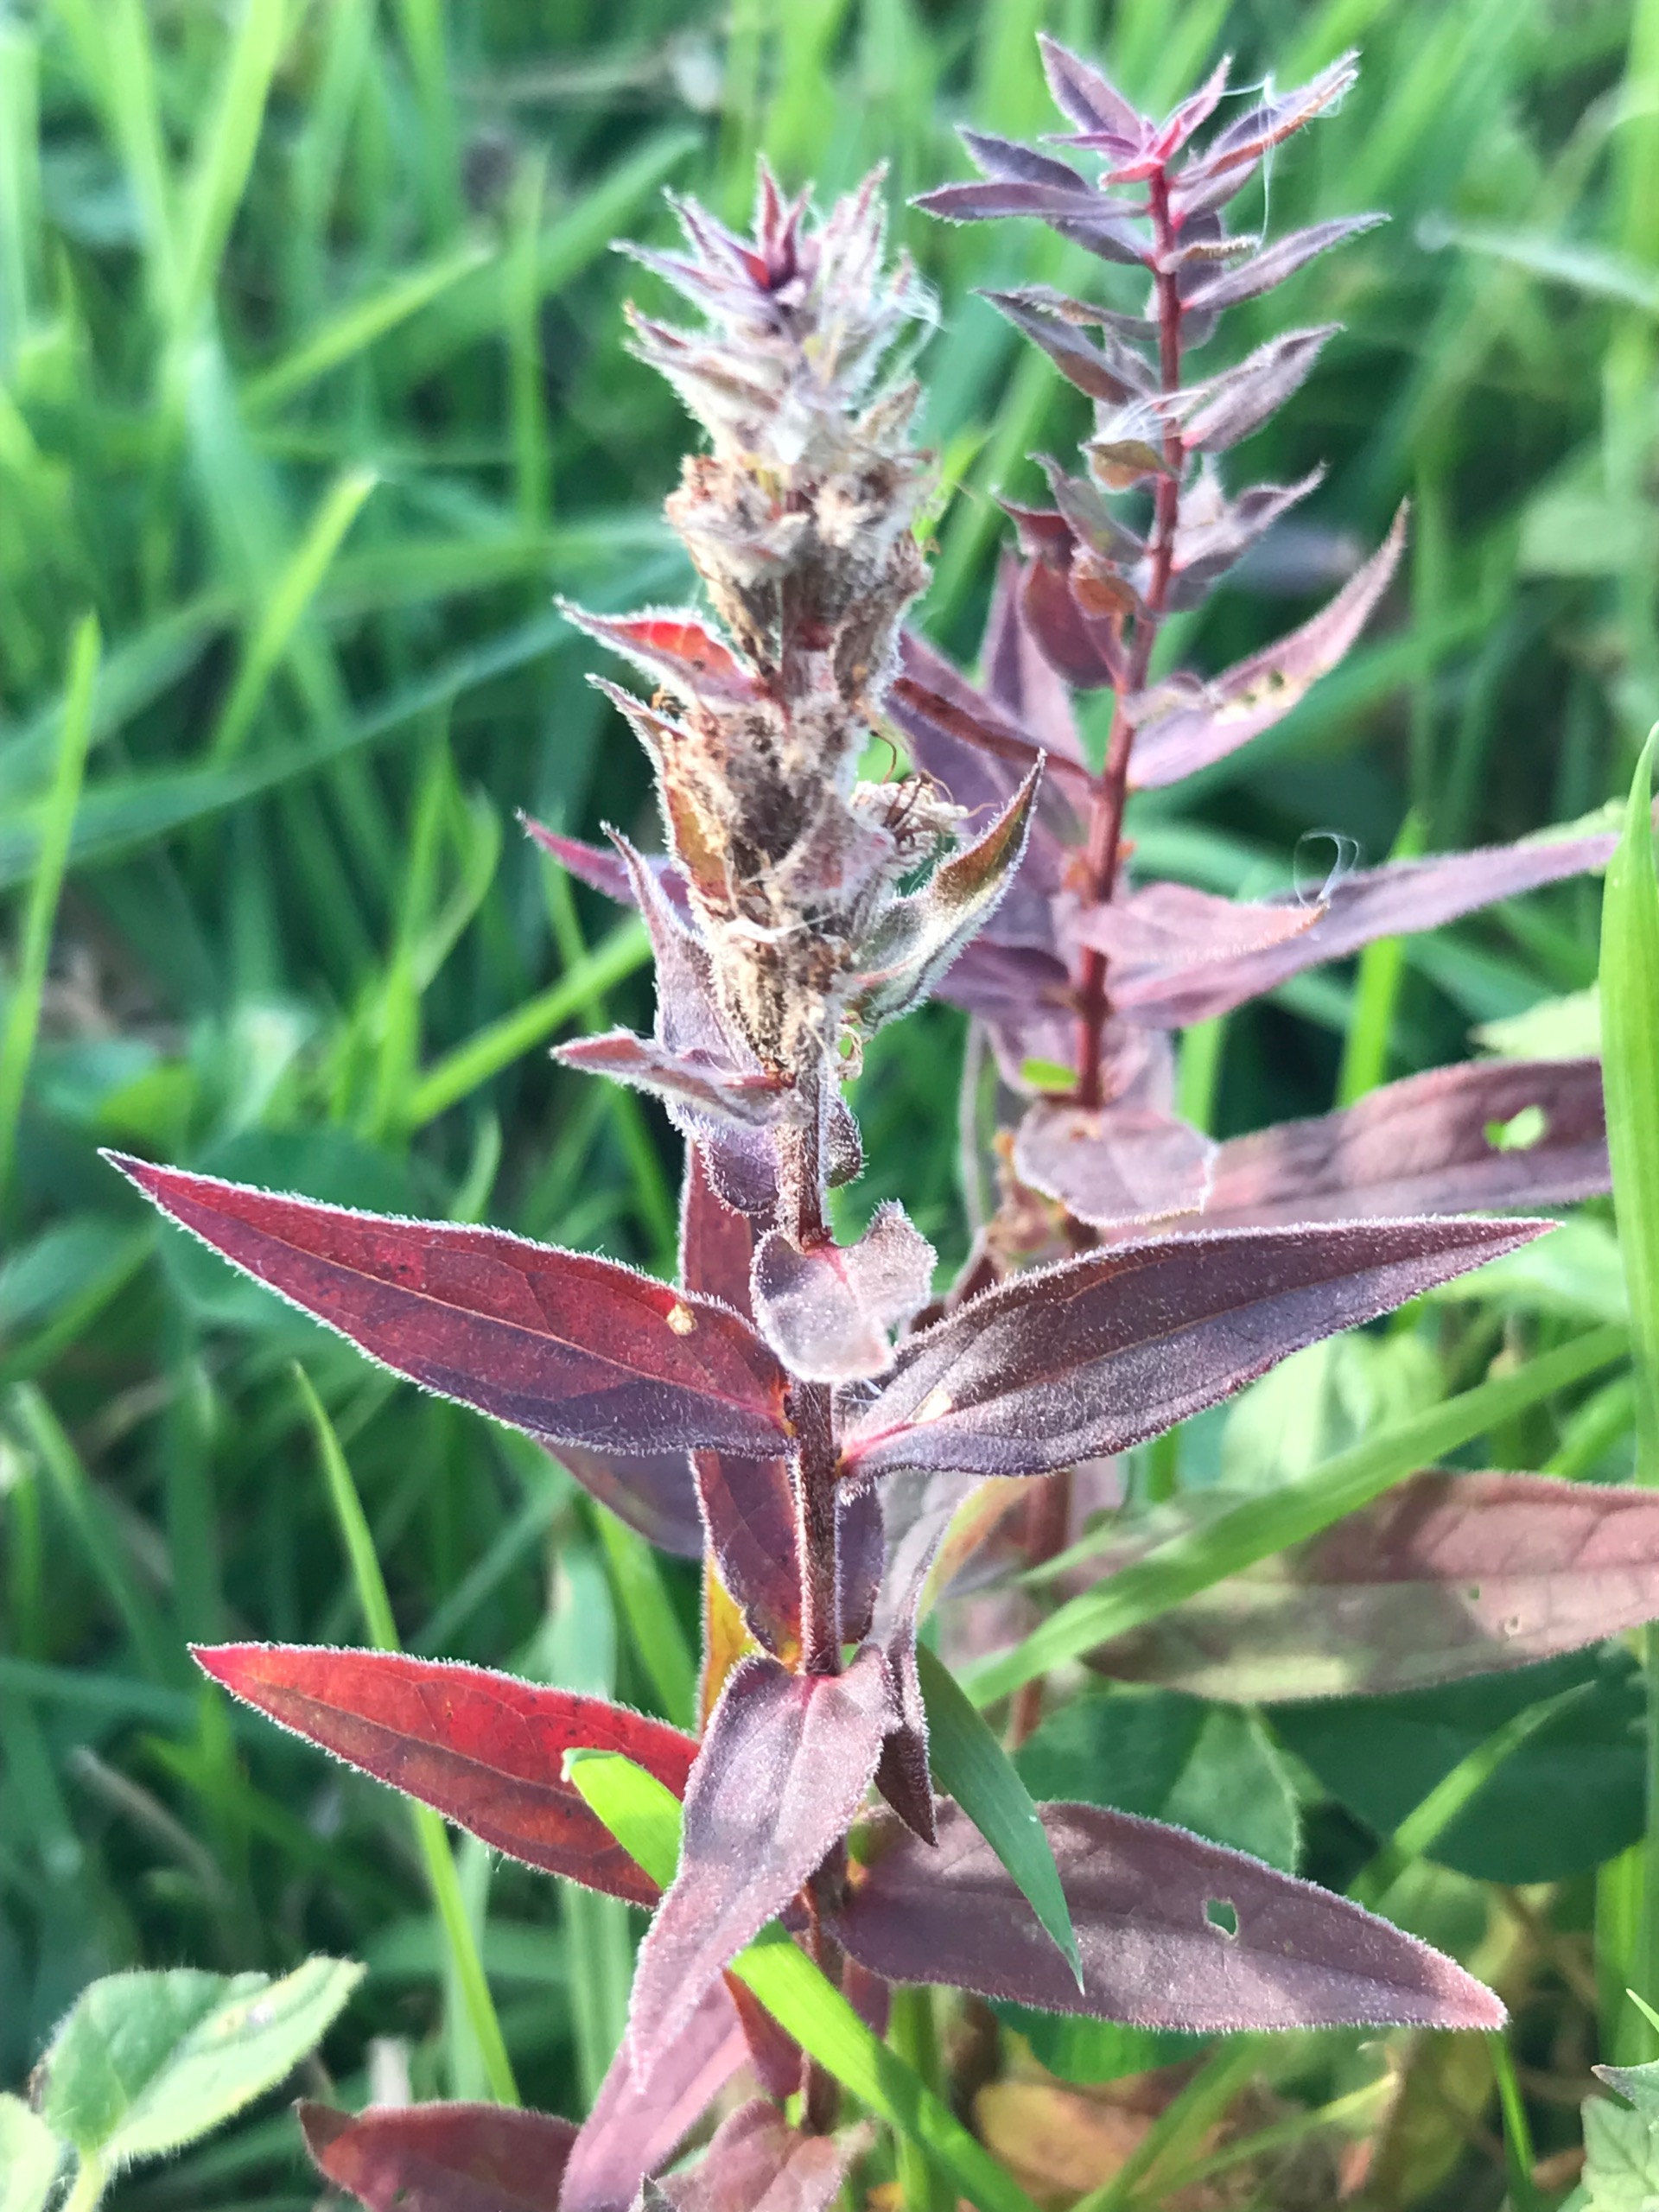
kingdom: Plantae
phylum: Tracheophyta
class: Magnoliopsida
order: Myrtales
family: Lythraceae
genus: Lythrum
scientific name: Lythrum salicaria
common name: Kattehale
